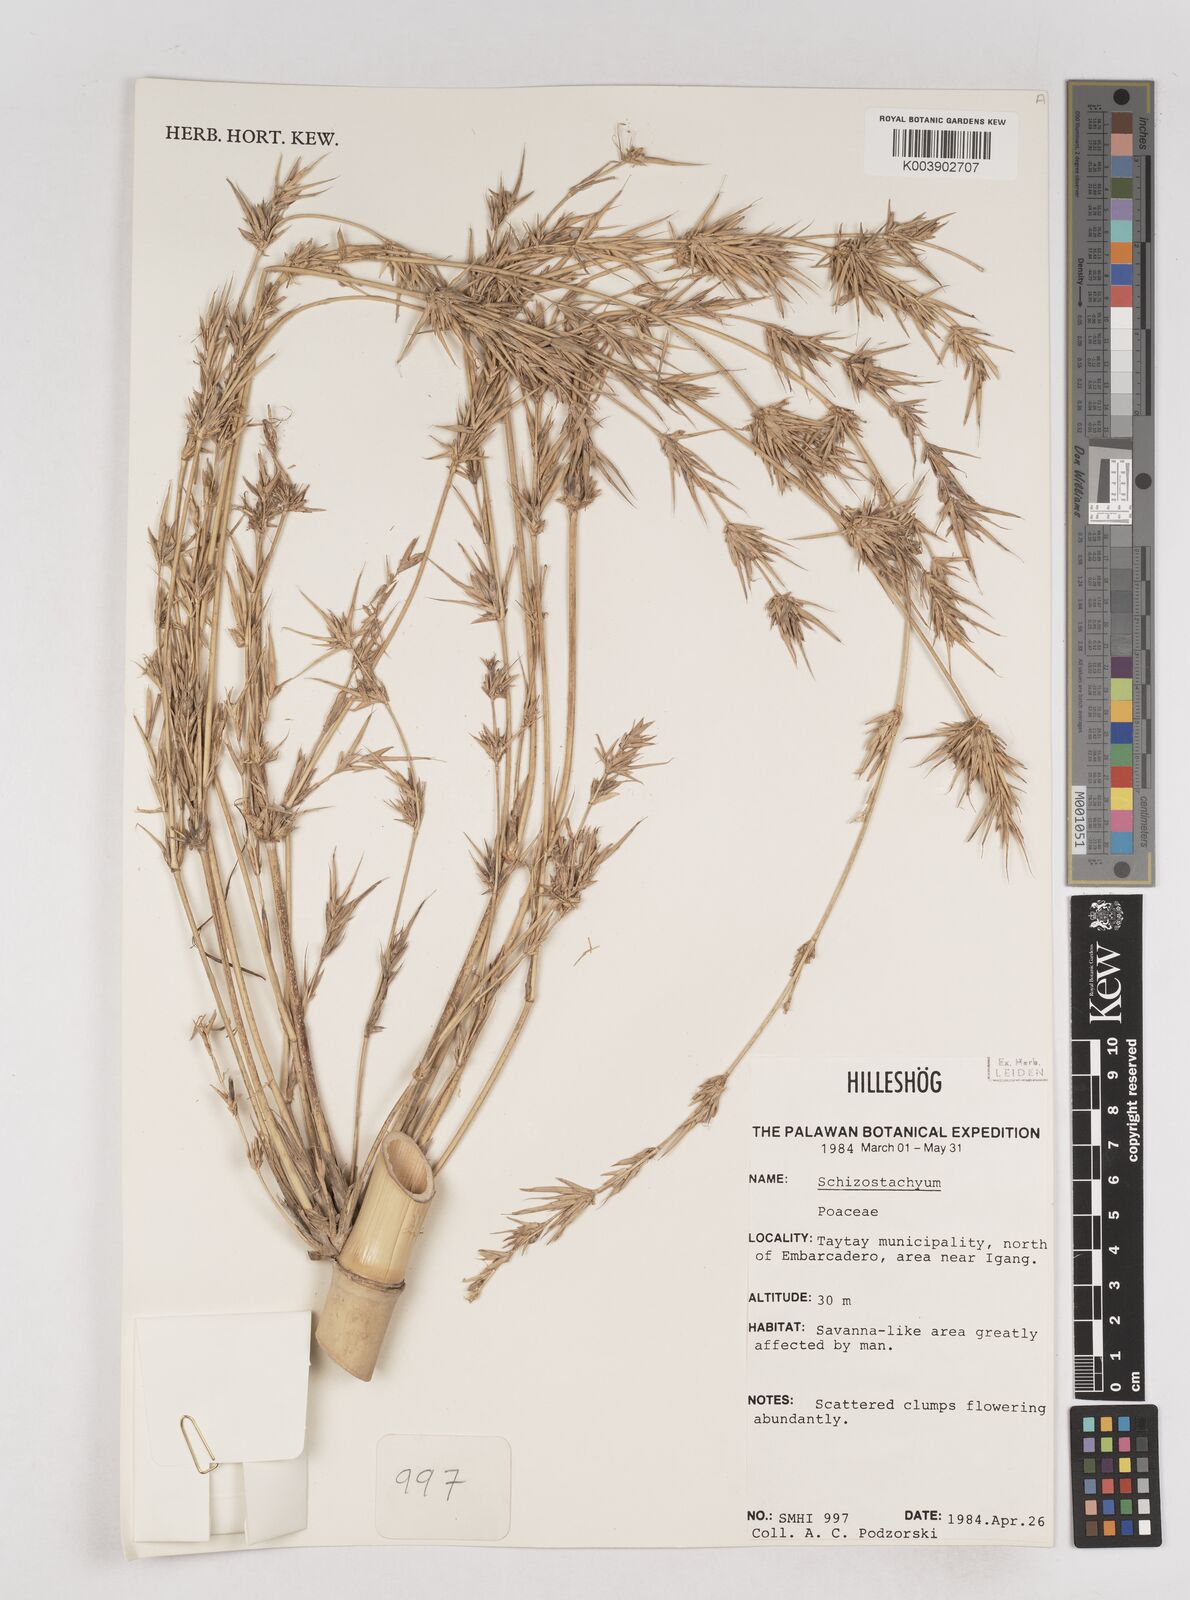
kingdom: Plantae
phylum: Tracheophyta
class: Liliopsida
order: Poales
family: Poaceae
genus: Schizostachyum
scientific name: Schizostachyum
